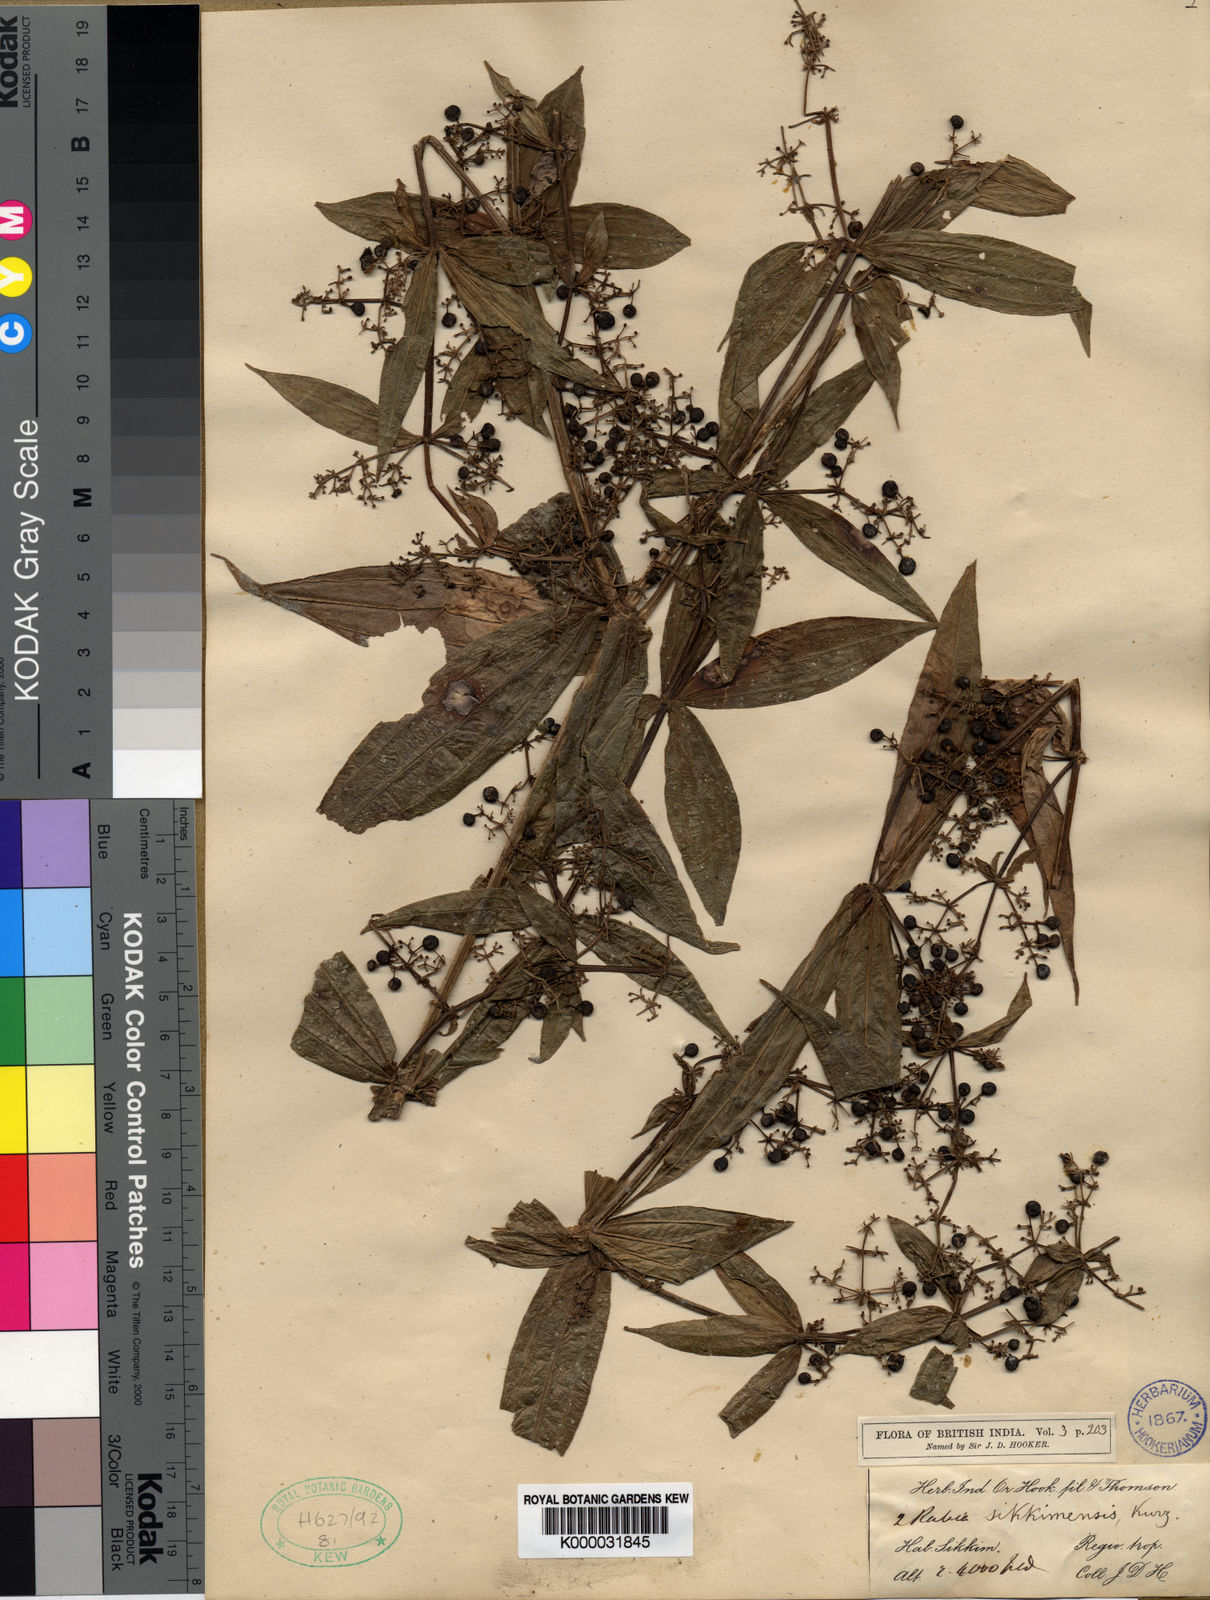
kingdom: Plantae
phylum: Tracheophyta
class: Magnoliopsida
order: Gentianales
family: Rubiaceae
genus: Rubia
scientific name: Rubia sikkimensis
